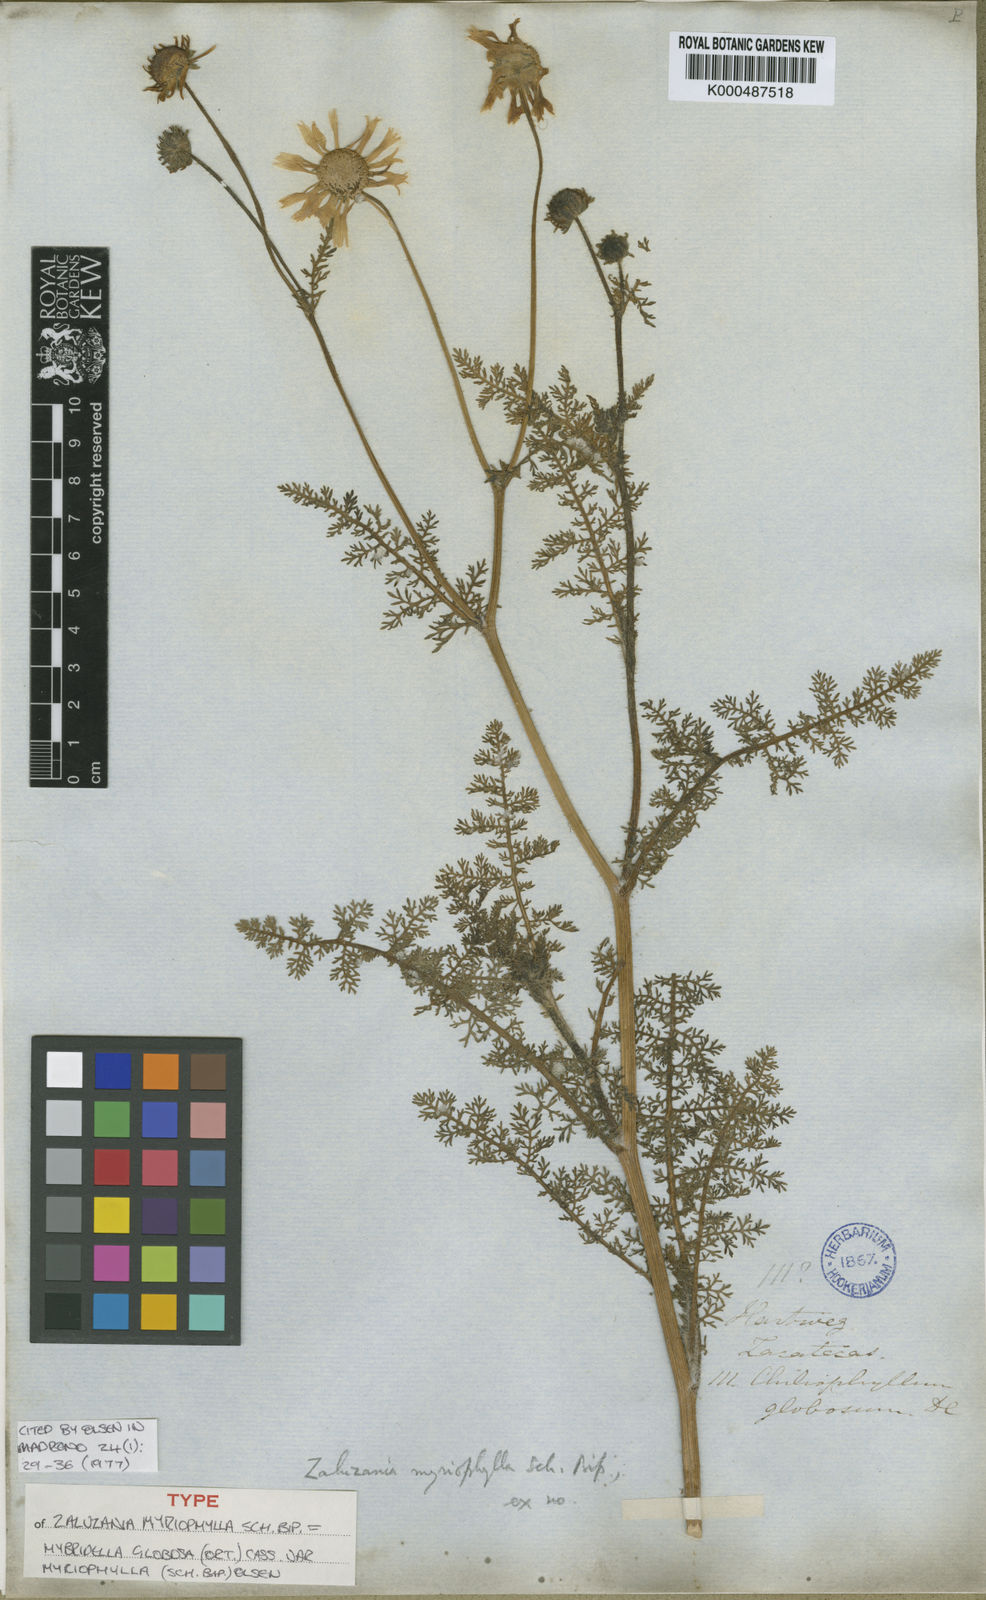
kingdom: Plantae
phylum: Tracheophyta
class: Magnoliopsida
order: Asterales
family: Asteraceae
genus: Hybridella
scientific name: Hybridella globosa
